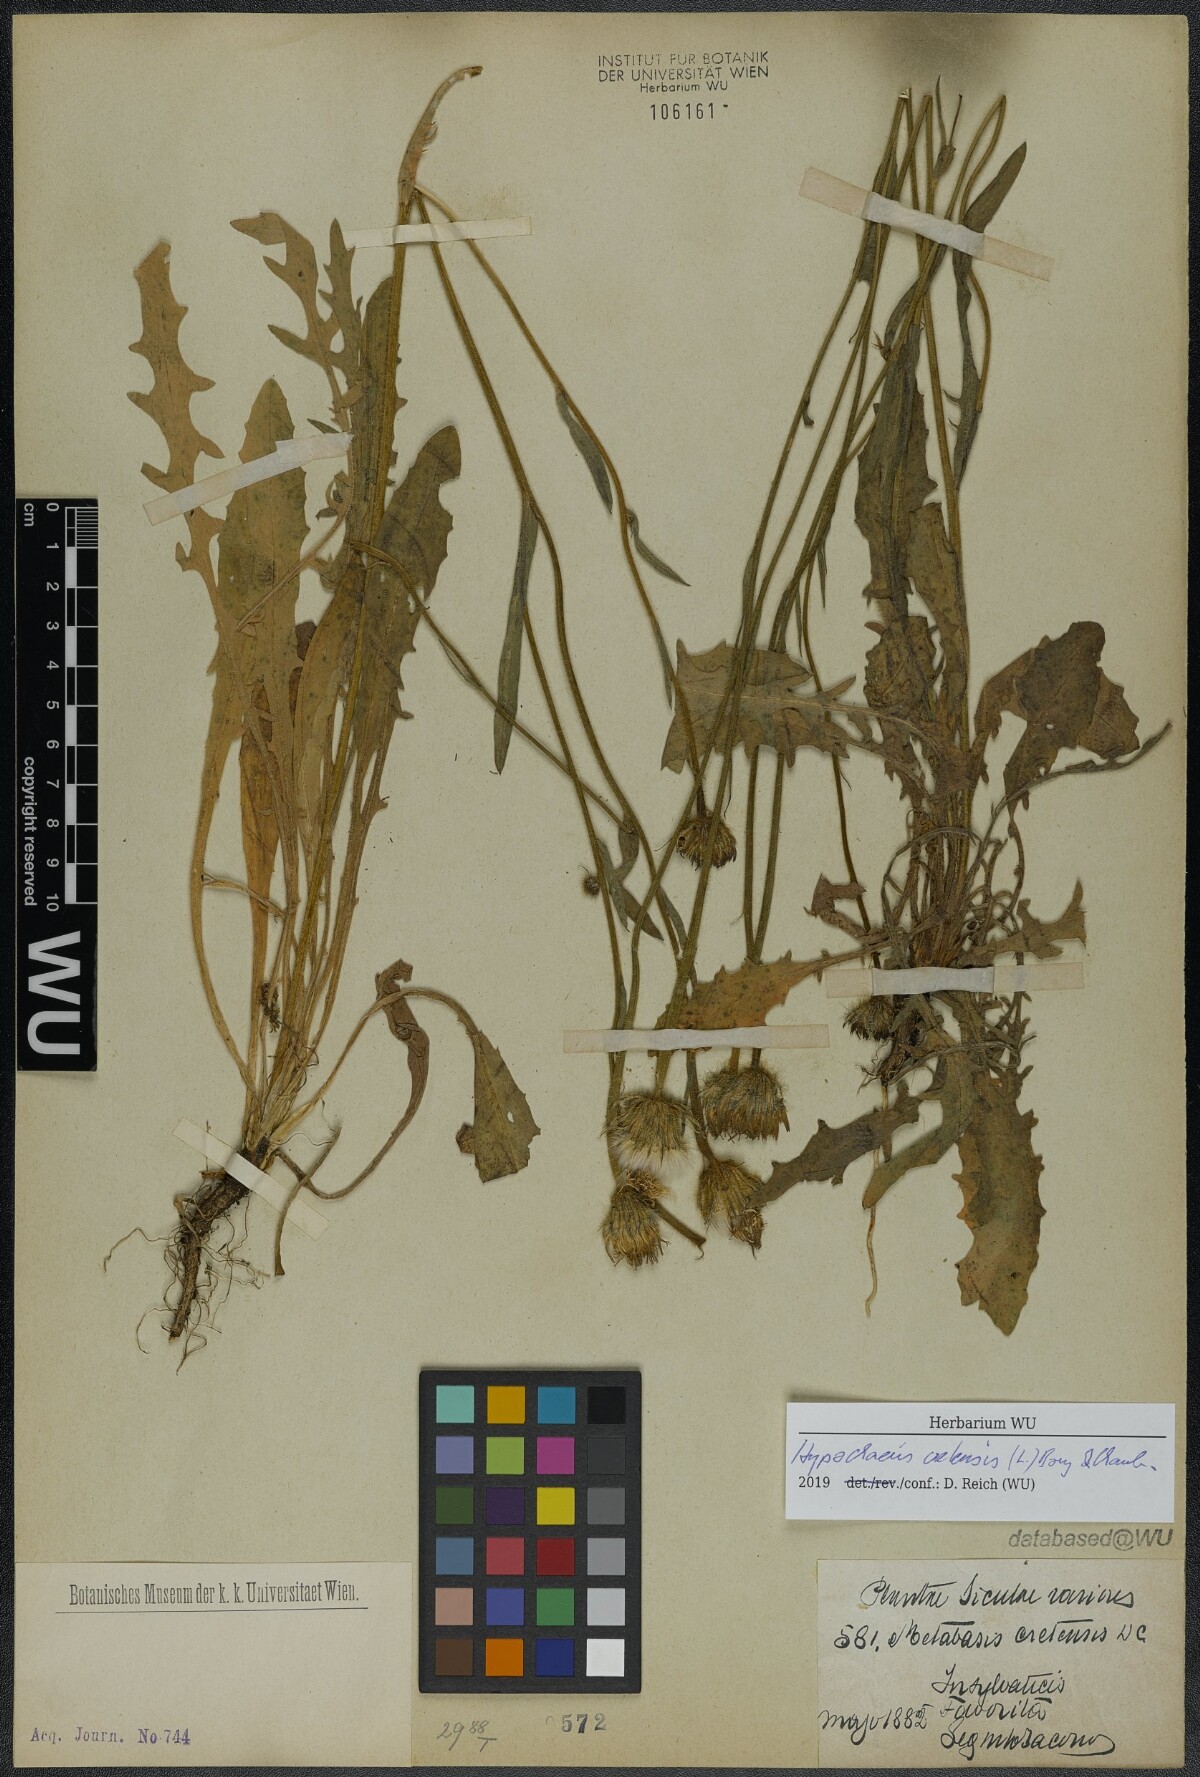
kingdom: Plantae
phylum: Tracheophyta
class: Magnoliopsida
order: Asterales
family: Asteraceae
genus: Hypochaeris
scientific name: Hypochaeris cretensis
